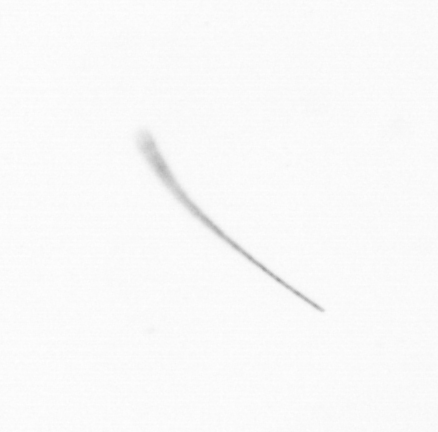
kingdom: Chromista
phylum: Ochrophyta
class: Bacillariophyceae
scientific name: Bacillariophyceae
